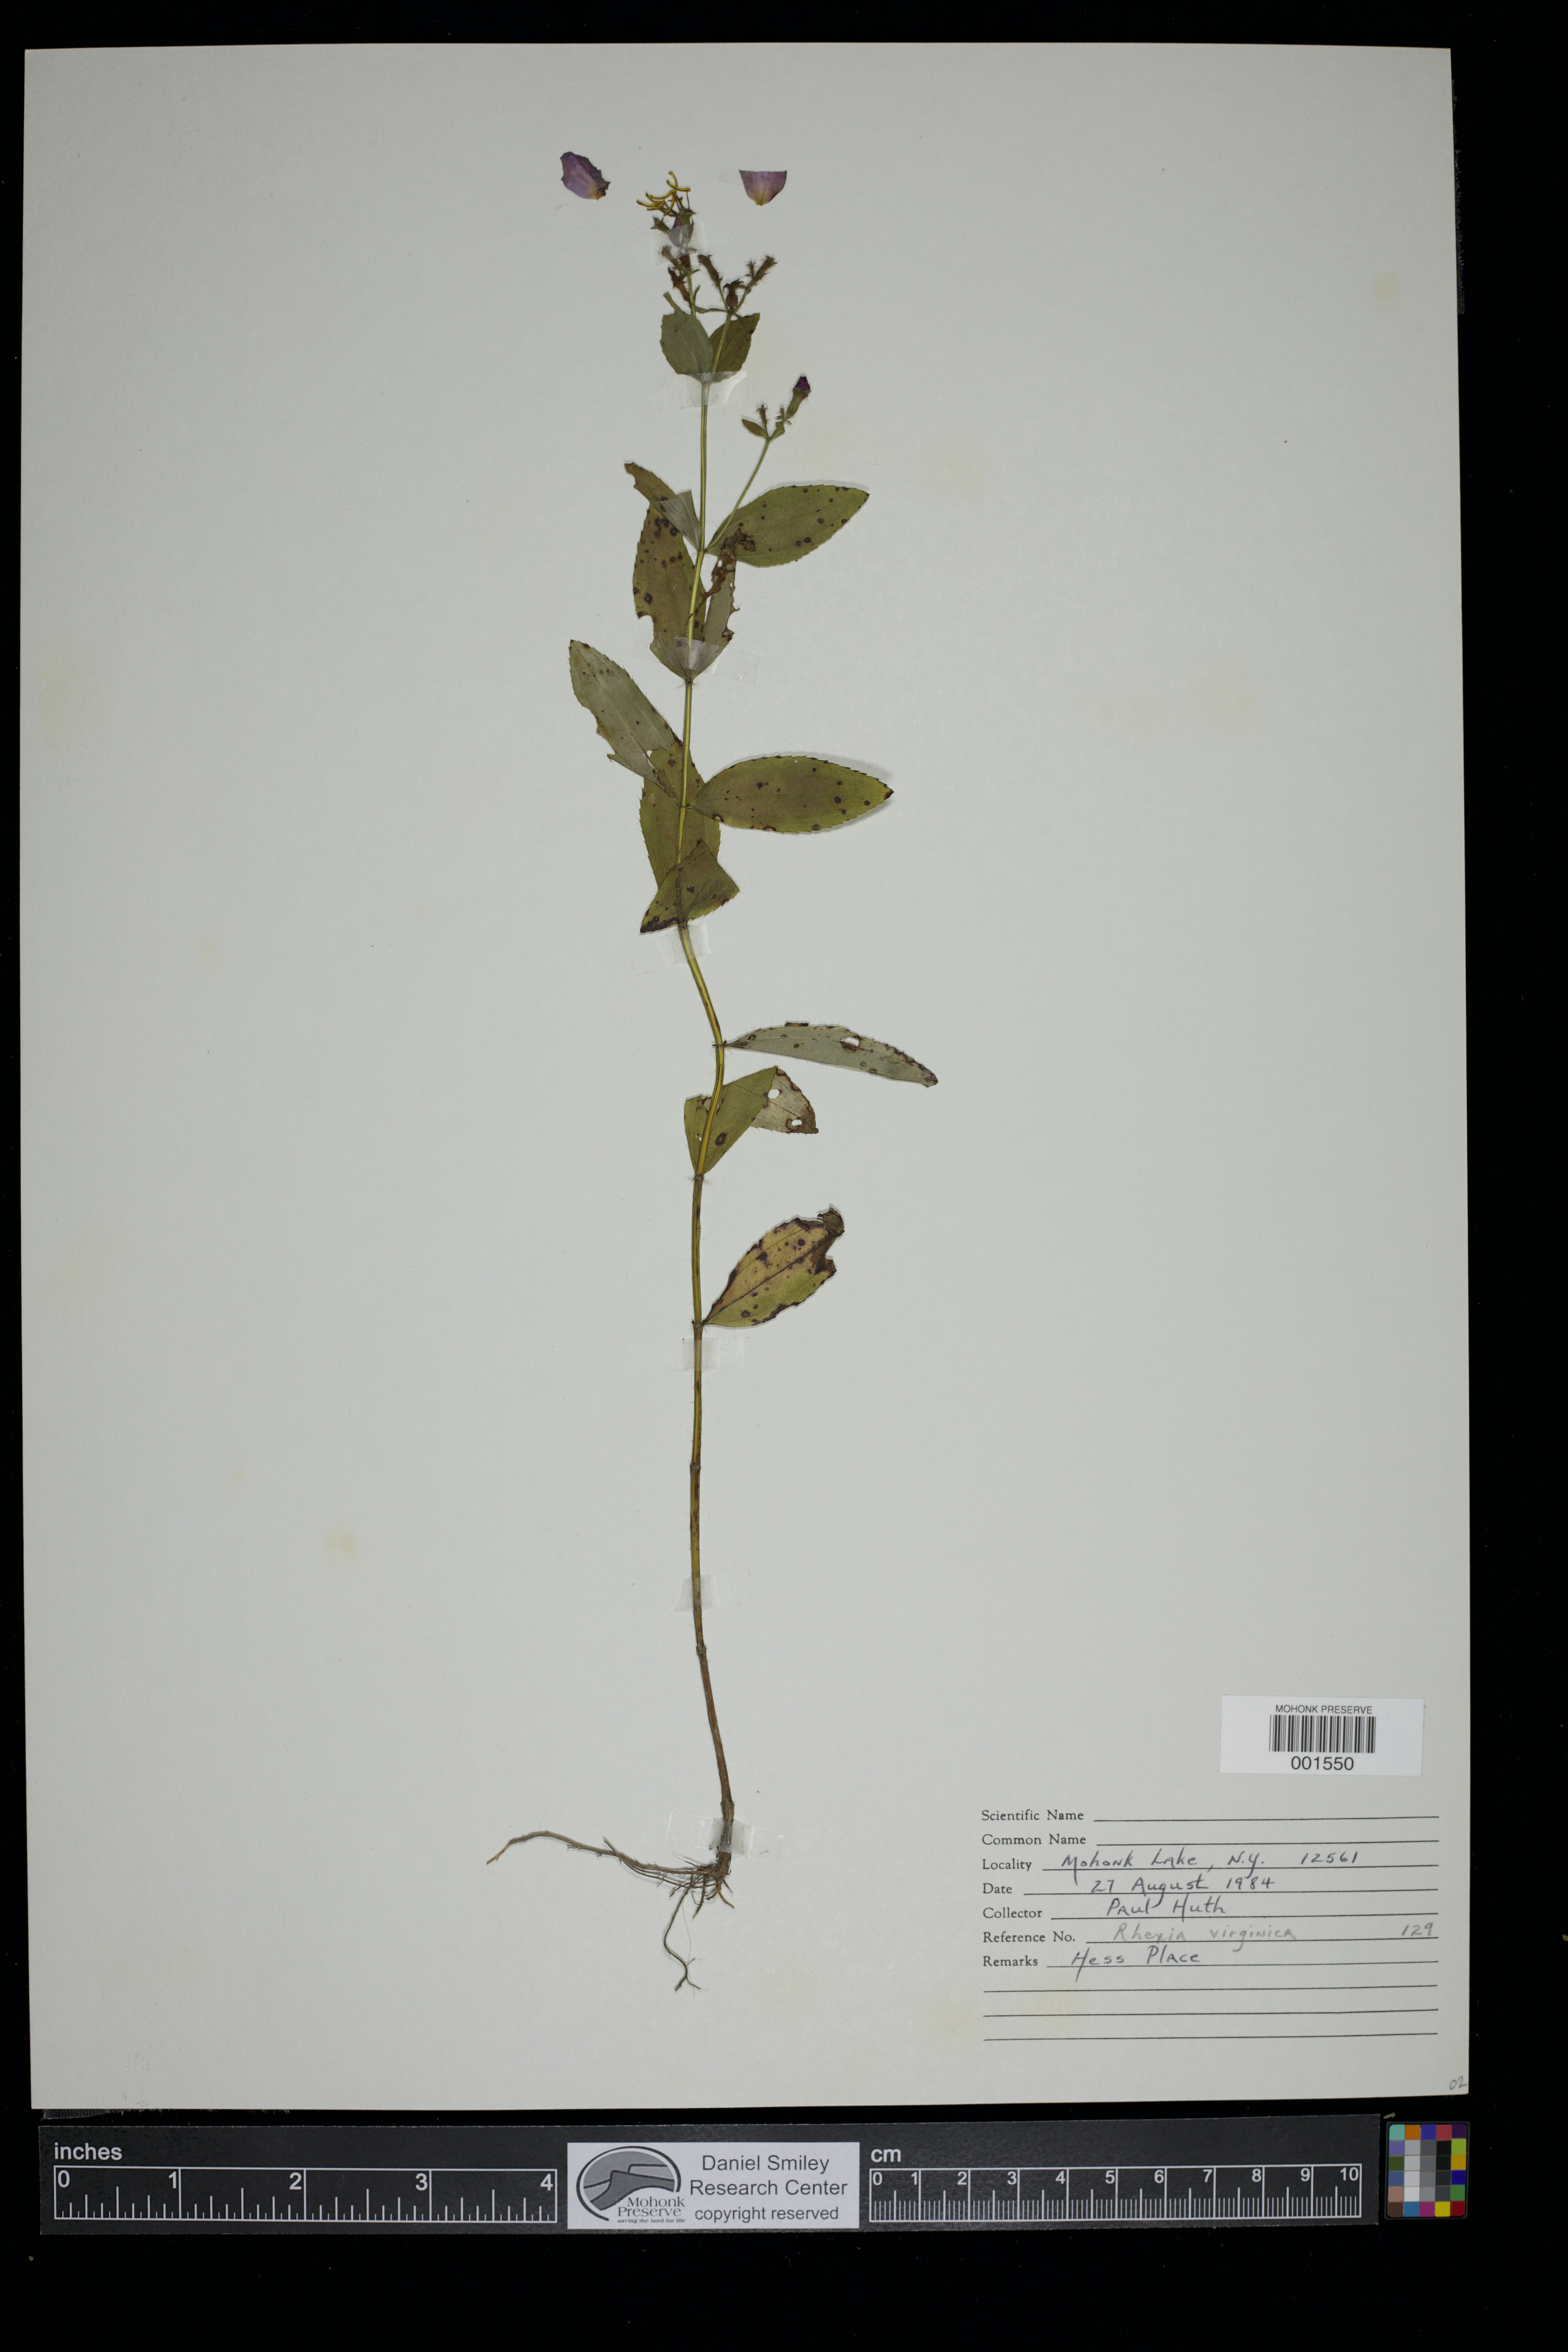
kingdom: Plantae
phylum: Tracheophyta
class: Magnoliopsida
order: Myrtales
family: Melastomataceae
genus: Rhexia
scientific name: Rhexia virginica
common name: Common meadow beauty
